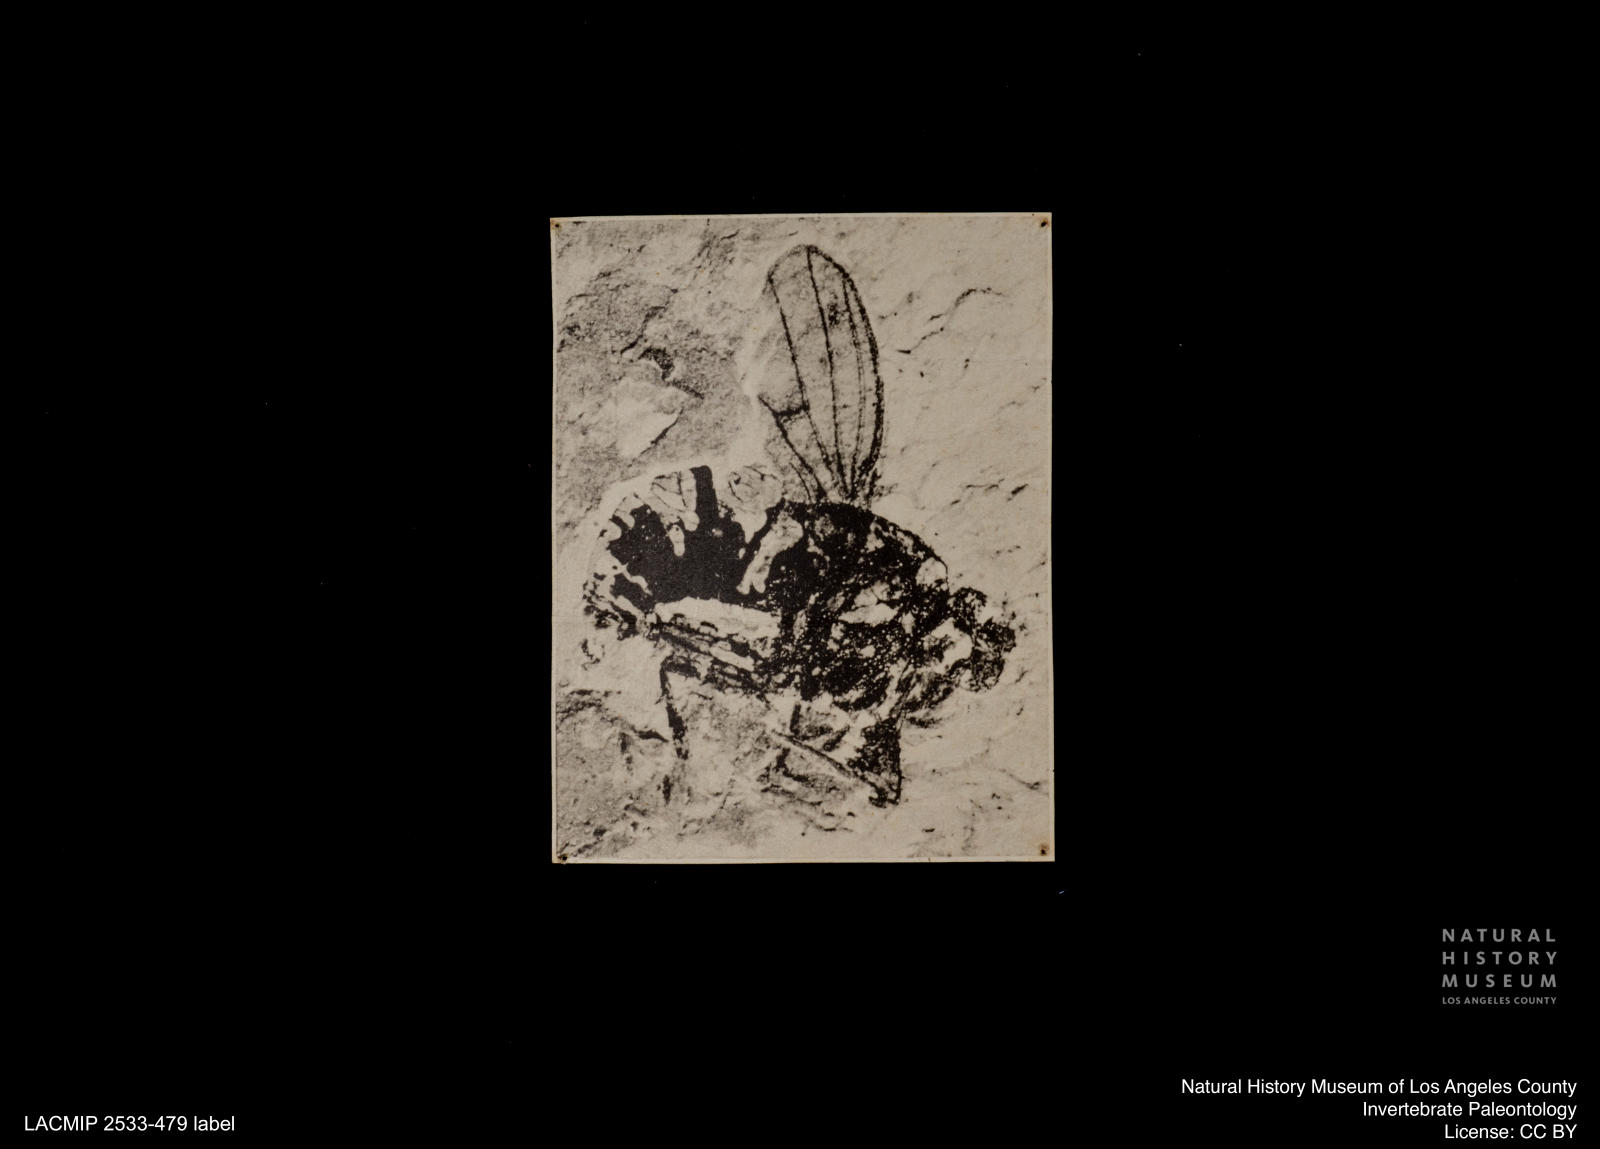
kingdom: Animalia
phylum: Arthropoda
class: Insecta
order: Diptera
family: Chloropidae
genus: Chlorops
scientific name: Chlorops anthracinus
